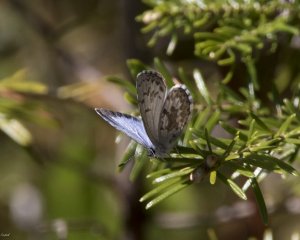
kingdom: Animalia
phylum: Arthropoda
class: Insecta
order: Lepidoptera
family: Lycaenidae
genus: Celastrina
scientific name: Celastrina lucia
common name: Northern Spring Azure
